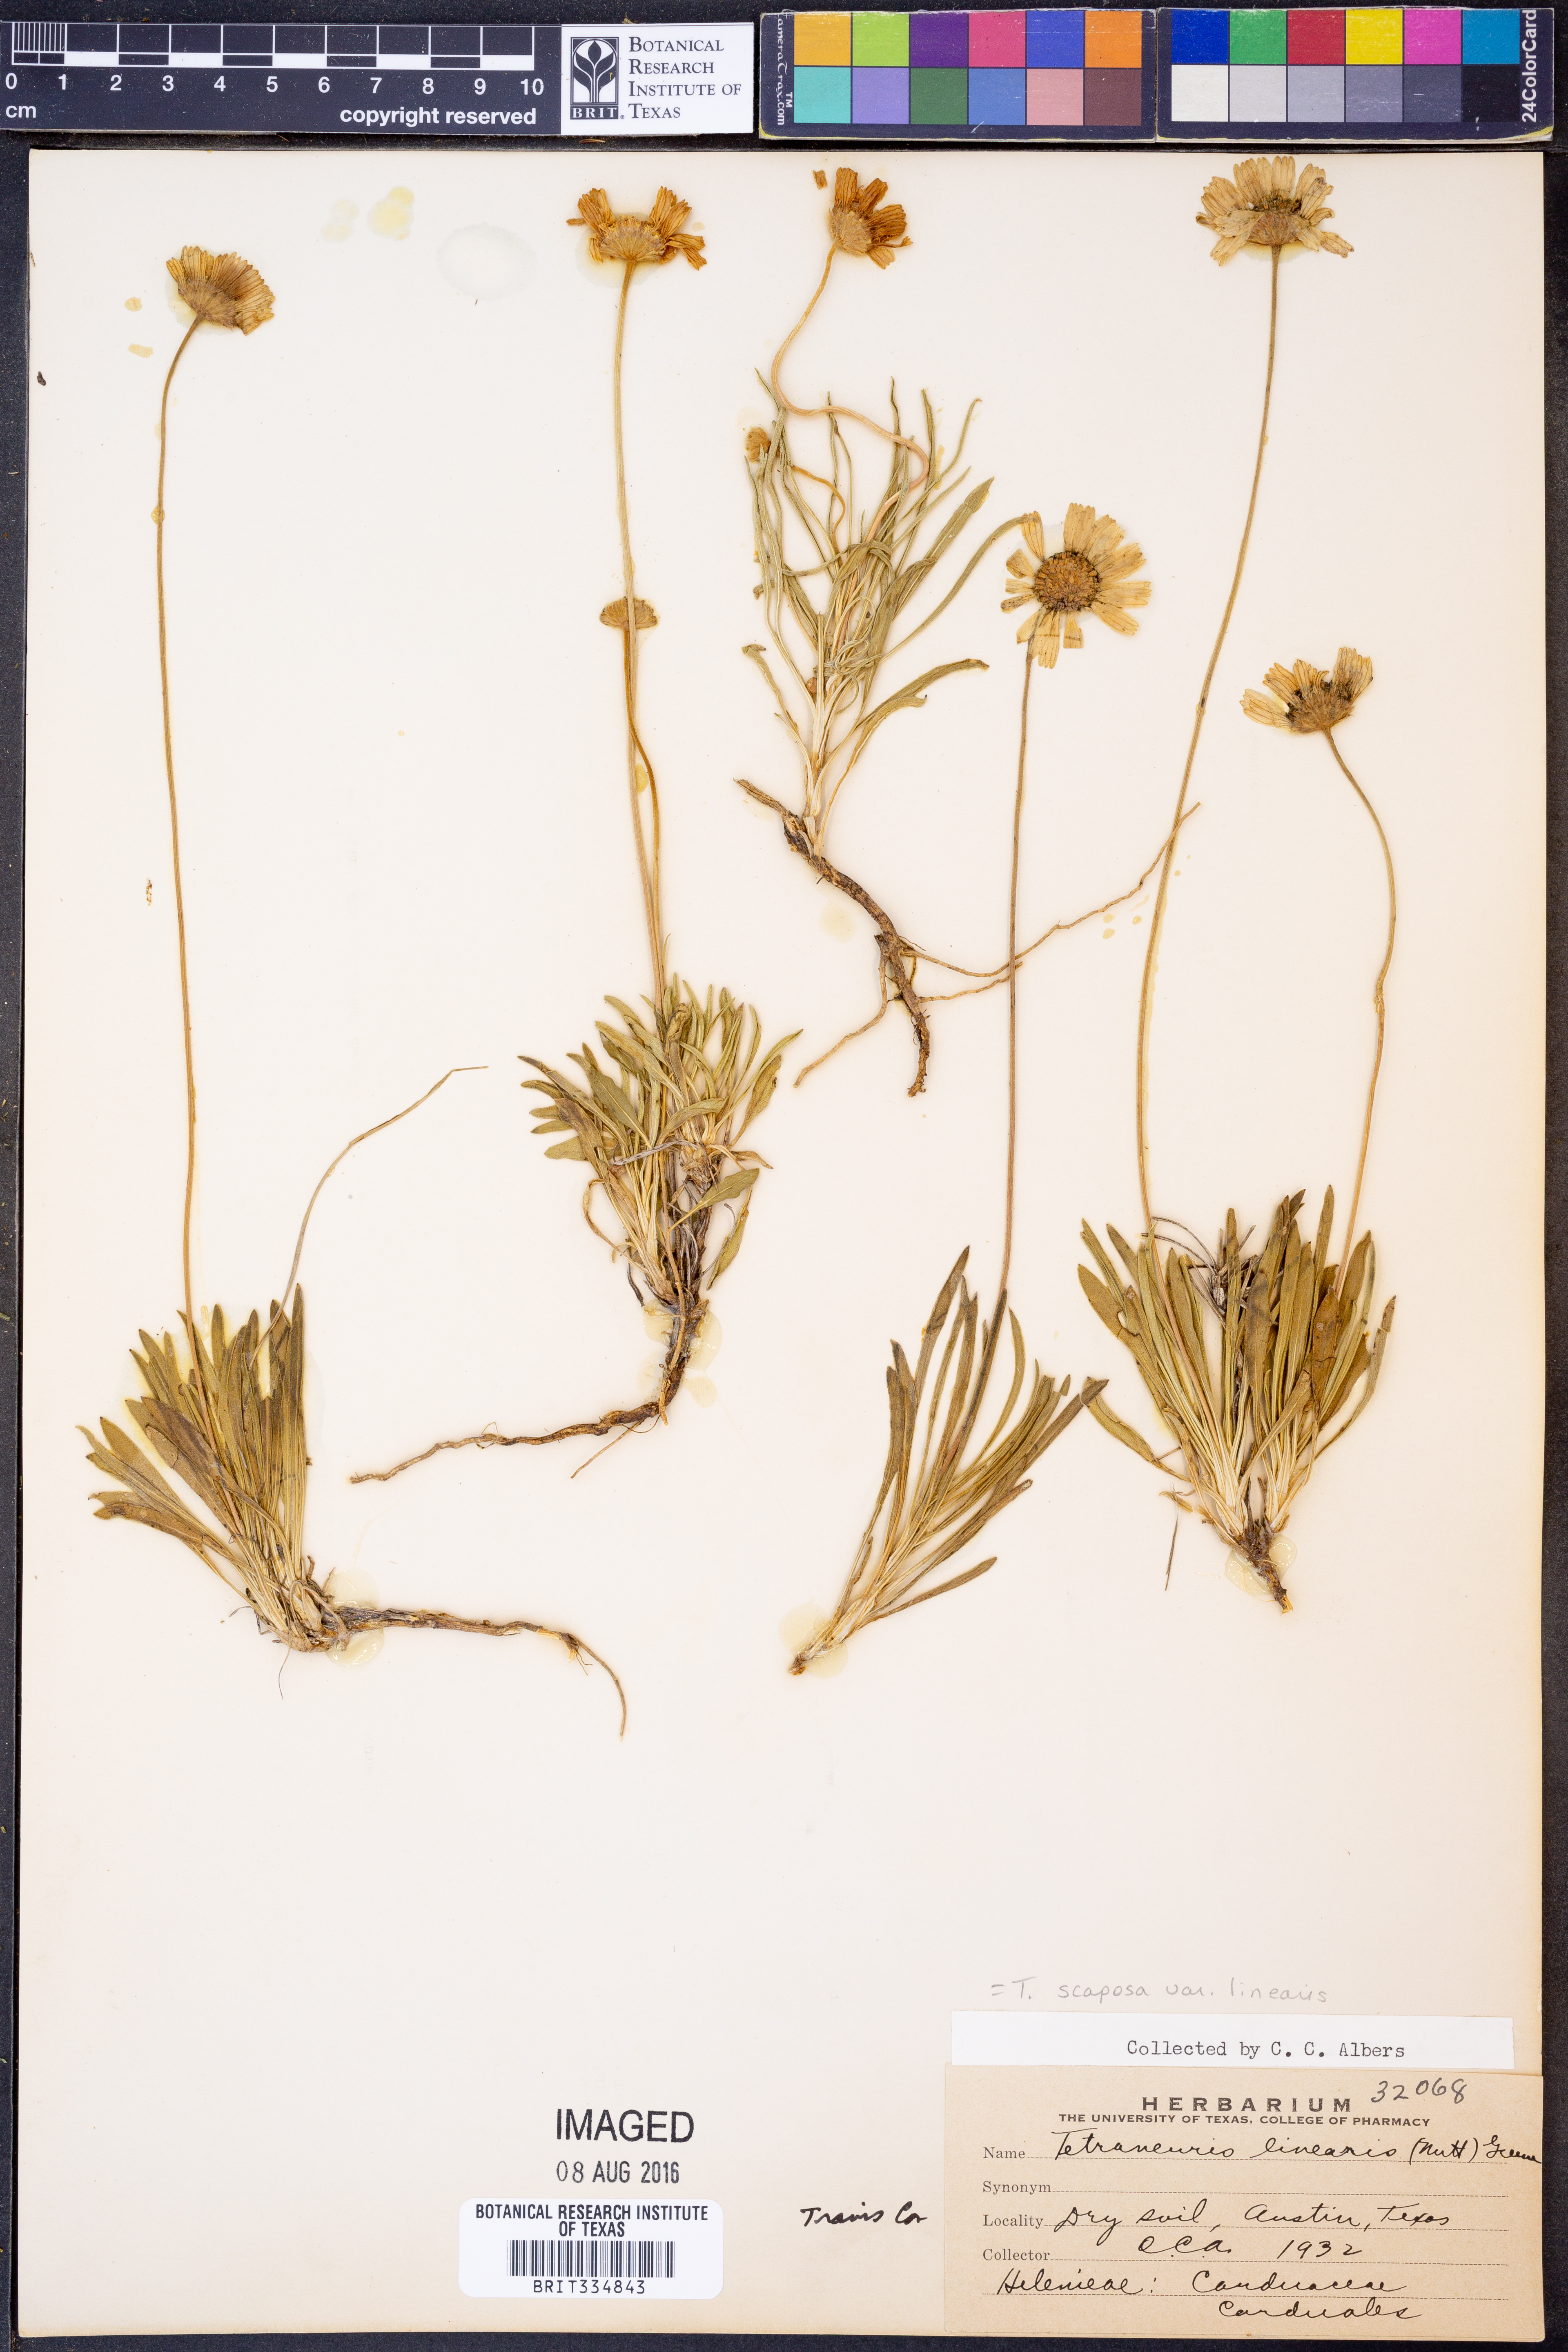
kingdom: Plantae
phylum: Tracheophyta
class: Magnoliopsida
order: Asterales
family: Asteraceae
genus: Tetraneuris
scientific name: Tetraneuris scaposa
